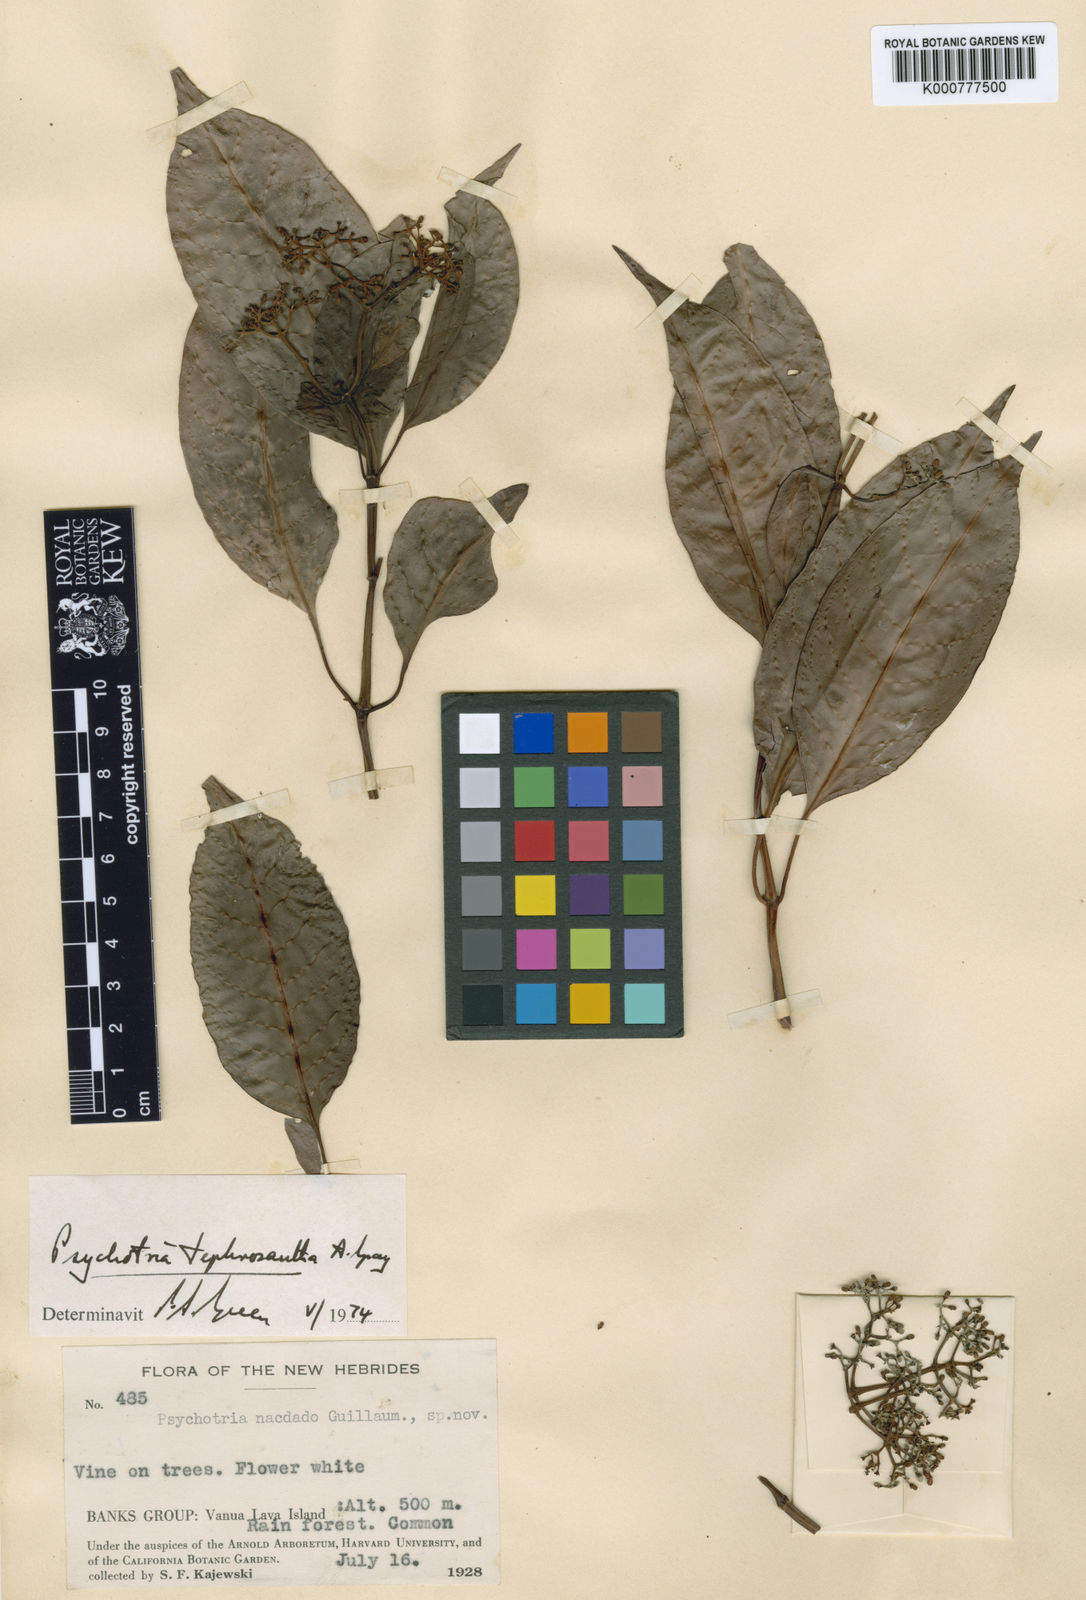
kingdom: Plantae
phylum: Tracheophyta
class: Magnoliopsida
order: Gentianales
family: Rubiaceae
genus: Psychotria
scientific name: Psychotria tephrosantha
